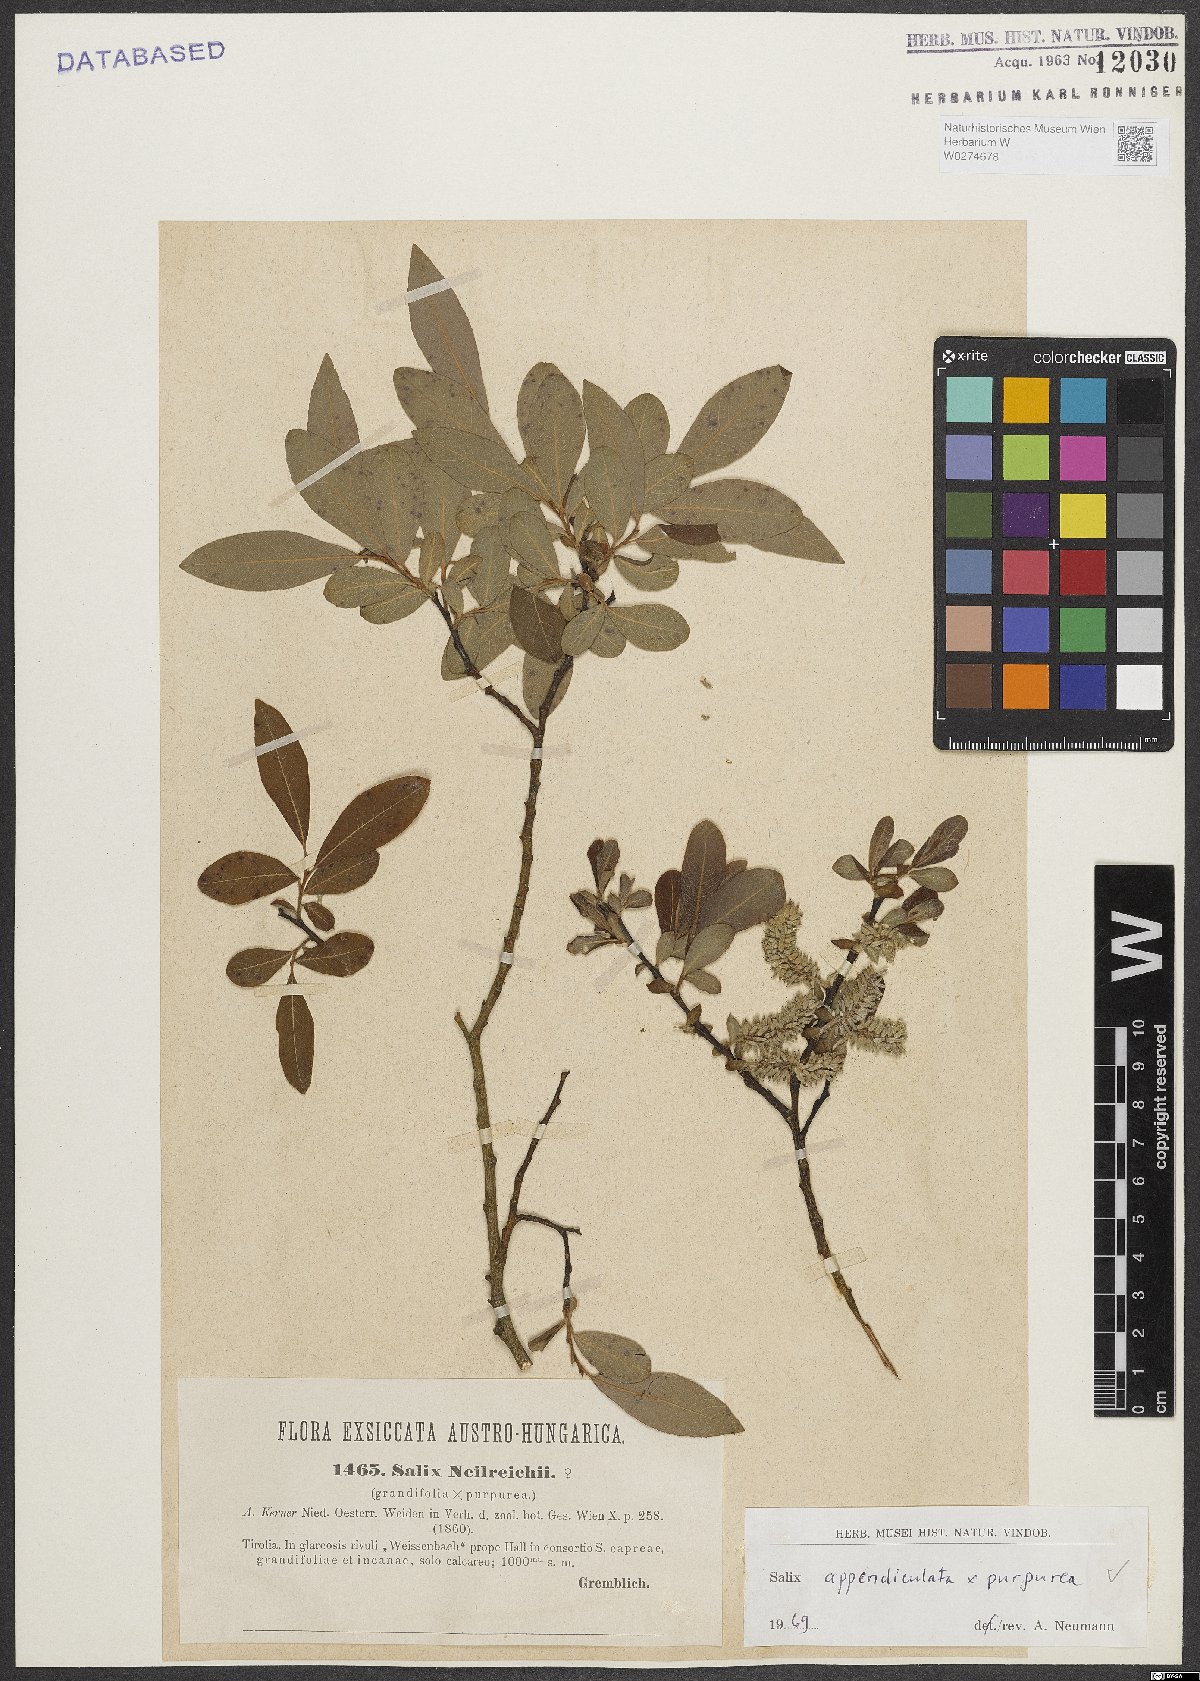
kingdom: Plantae
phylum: Tracheophyta
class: Magnoliopsida
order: Malpighiales
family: Salicaceae
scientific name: Salicaceae
